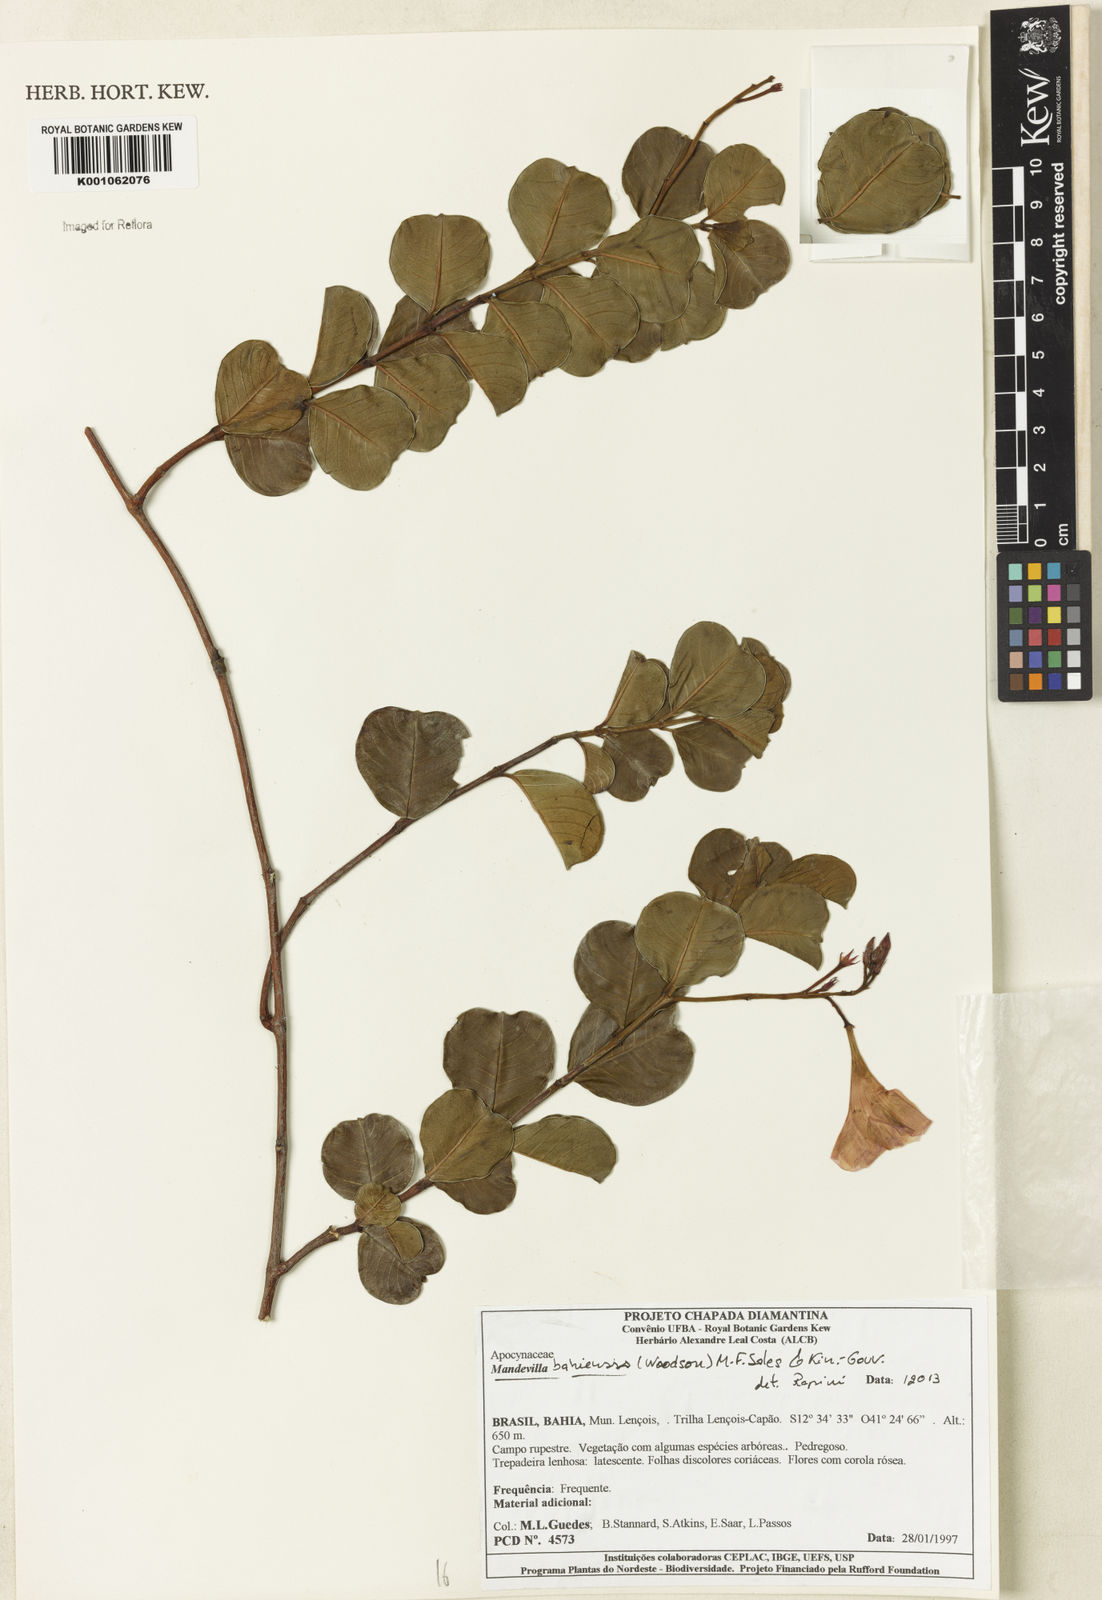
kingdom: Plantae
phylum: Tracheophyta
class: Magnoliopsida
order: Gentianales
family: Apocynaceae
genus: Mandevilla
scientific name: Mandevilla
